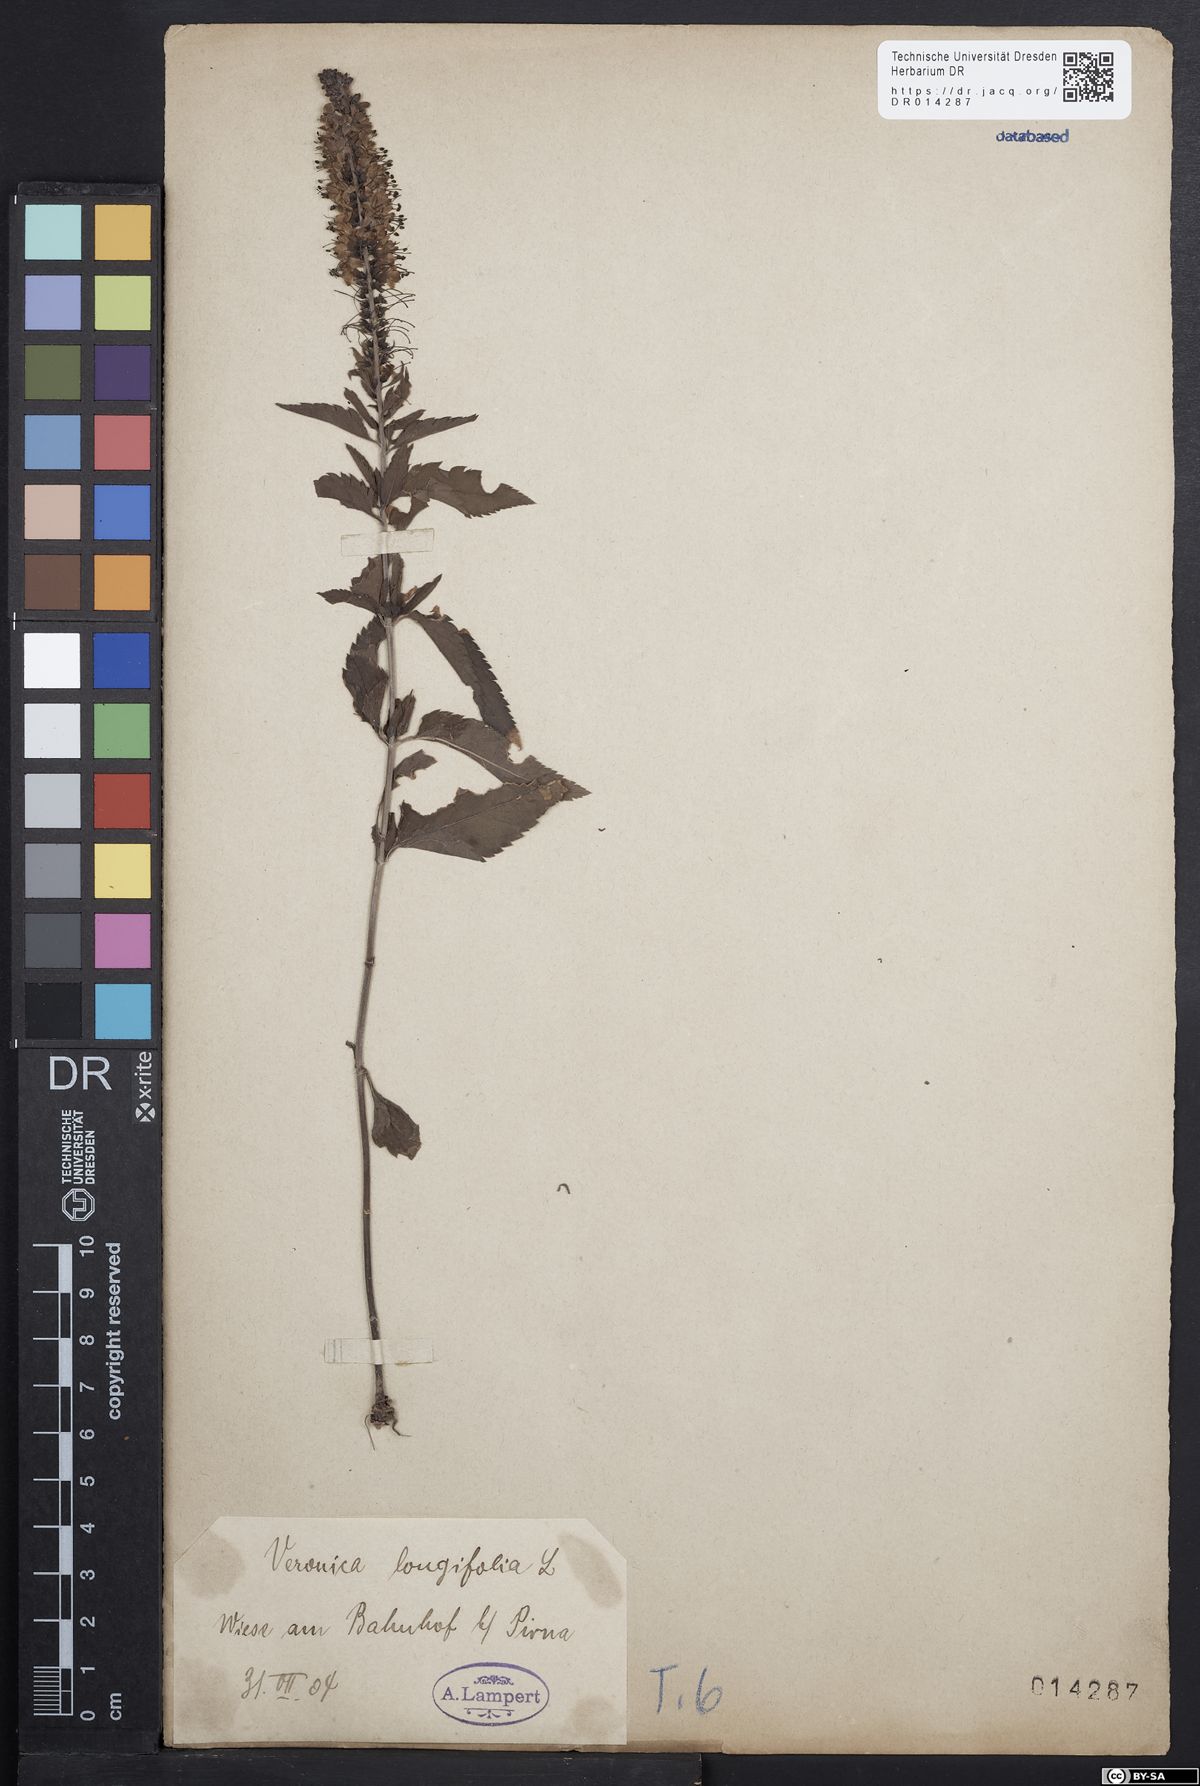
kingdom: Plantae
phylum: Tracheophyta
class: Magnoliopsida
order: Lamiales
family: Plantaginaceae
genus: Veronica
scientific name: Veronica longifolia
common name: Garden speedwell
